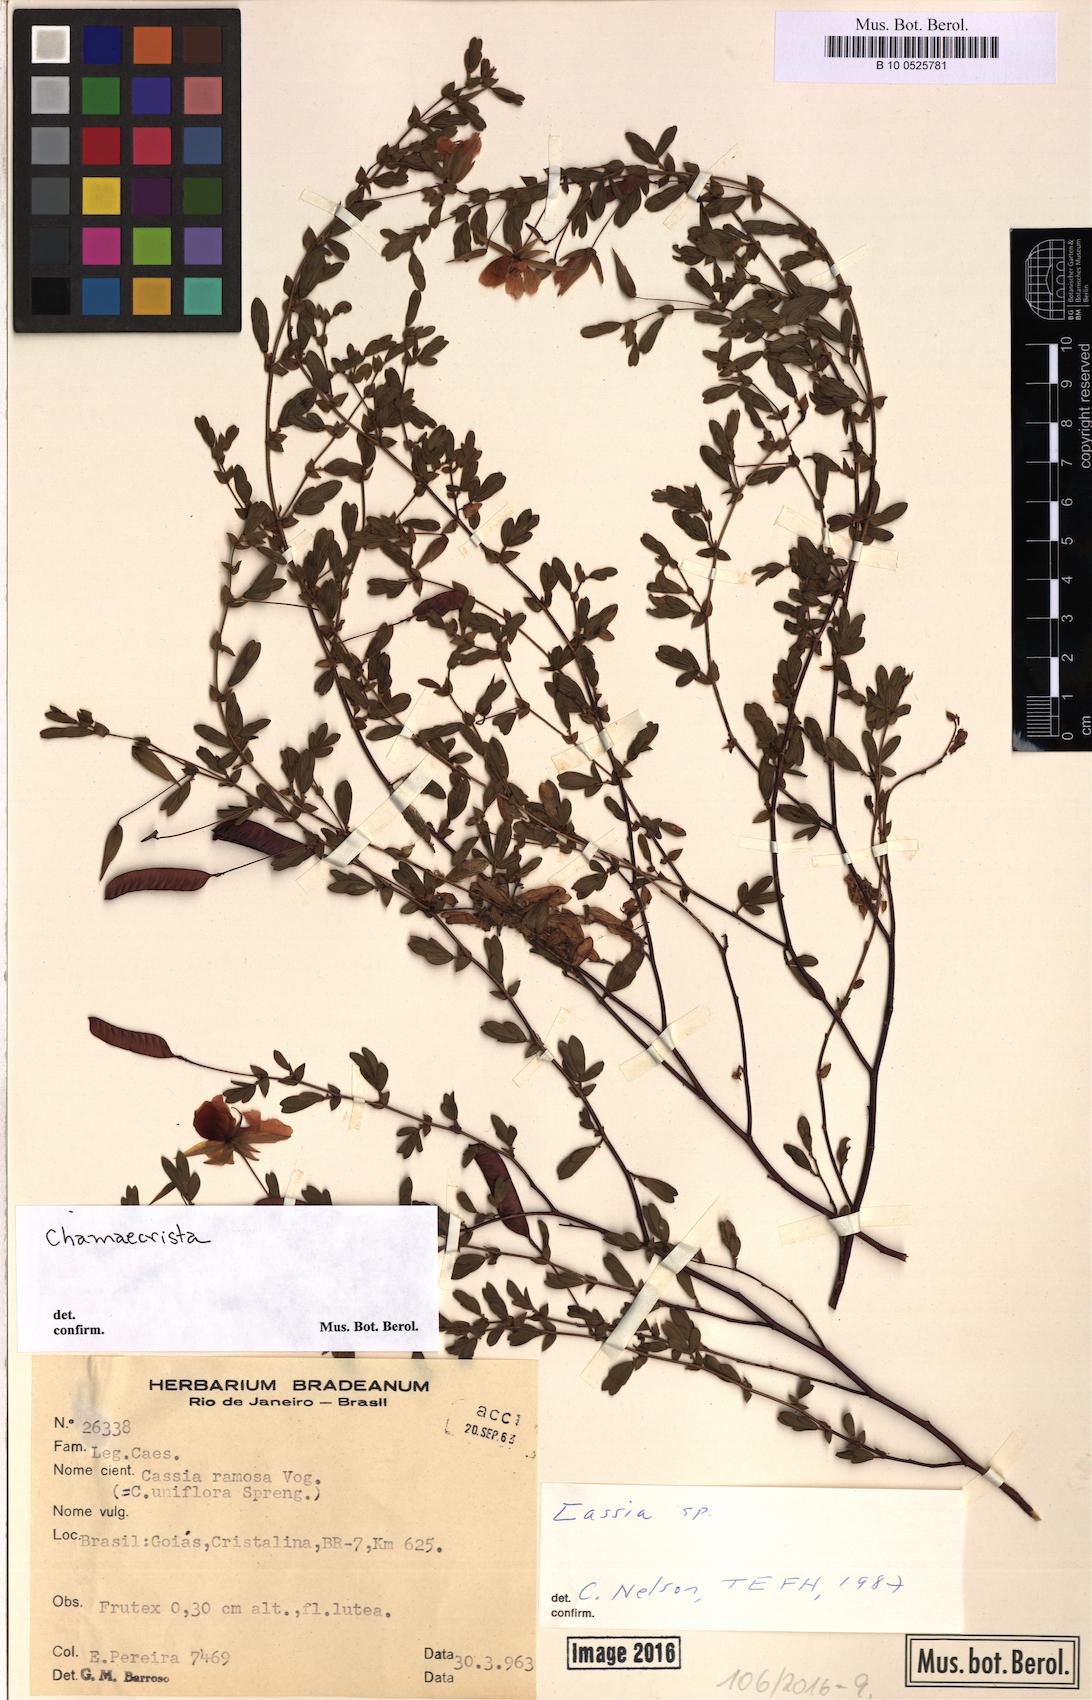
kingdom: Plantae
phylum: Tracheophyta
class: Magnoliopsida
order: Fabales
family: Fabaceae
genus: Chamaecrista
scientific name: Chamaecrista
